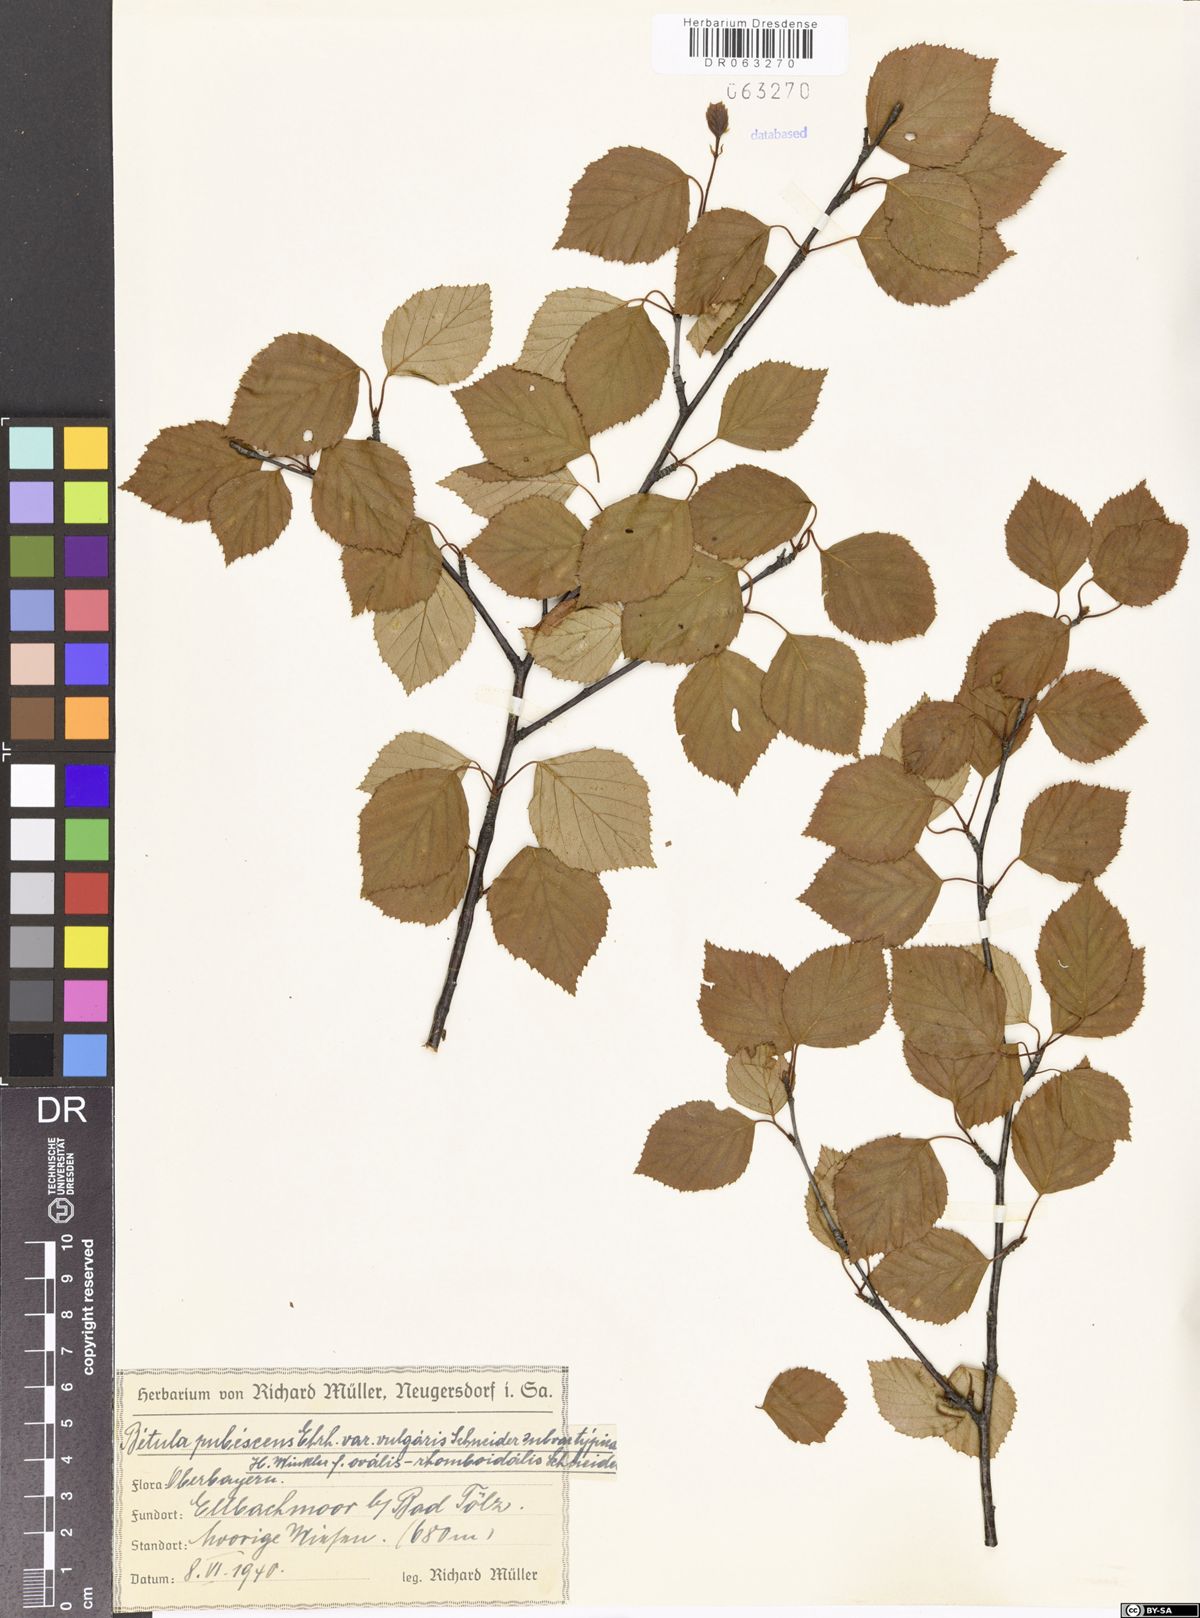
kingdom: Plantae
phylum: Tracheophyta
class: Magnoliopsida
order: Fagales
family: Betulaceae
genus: Betula
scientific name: Betula pubescens
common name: Downy birch
